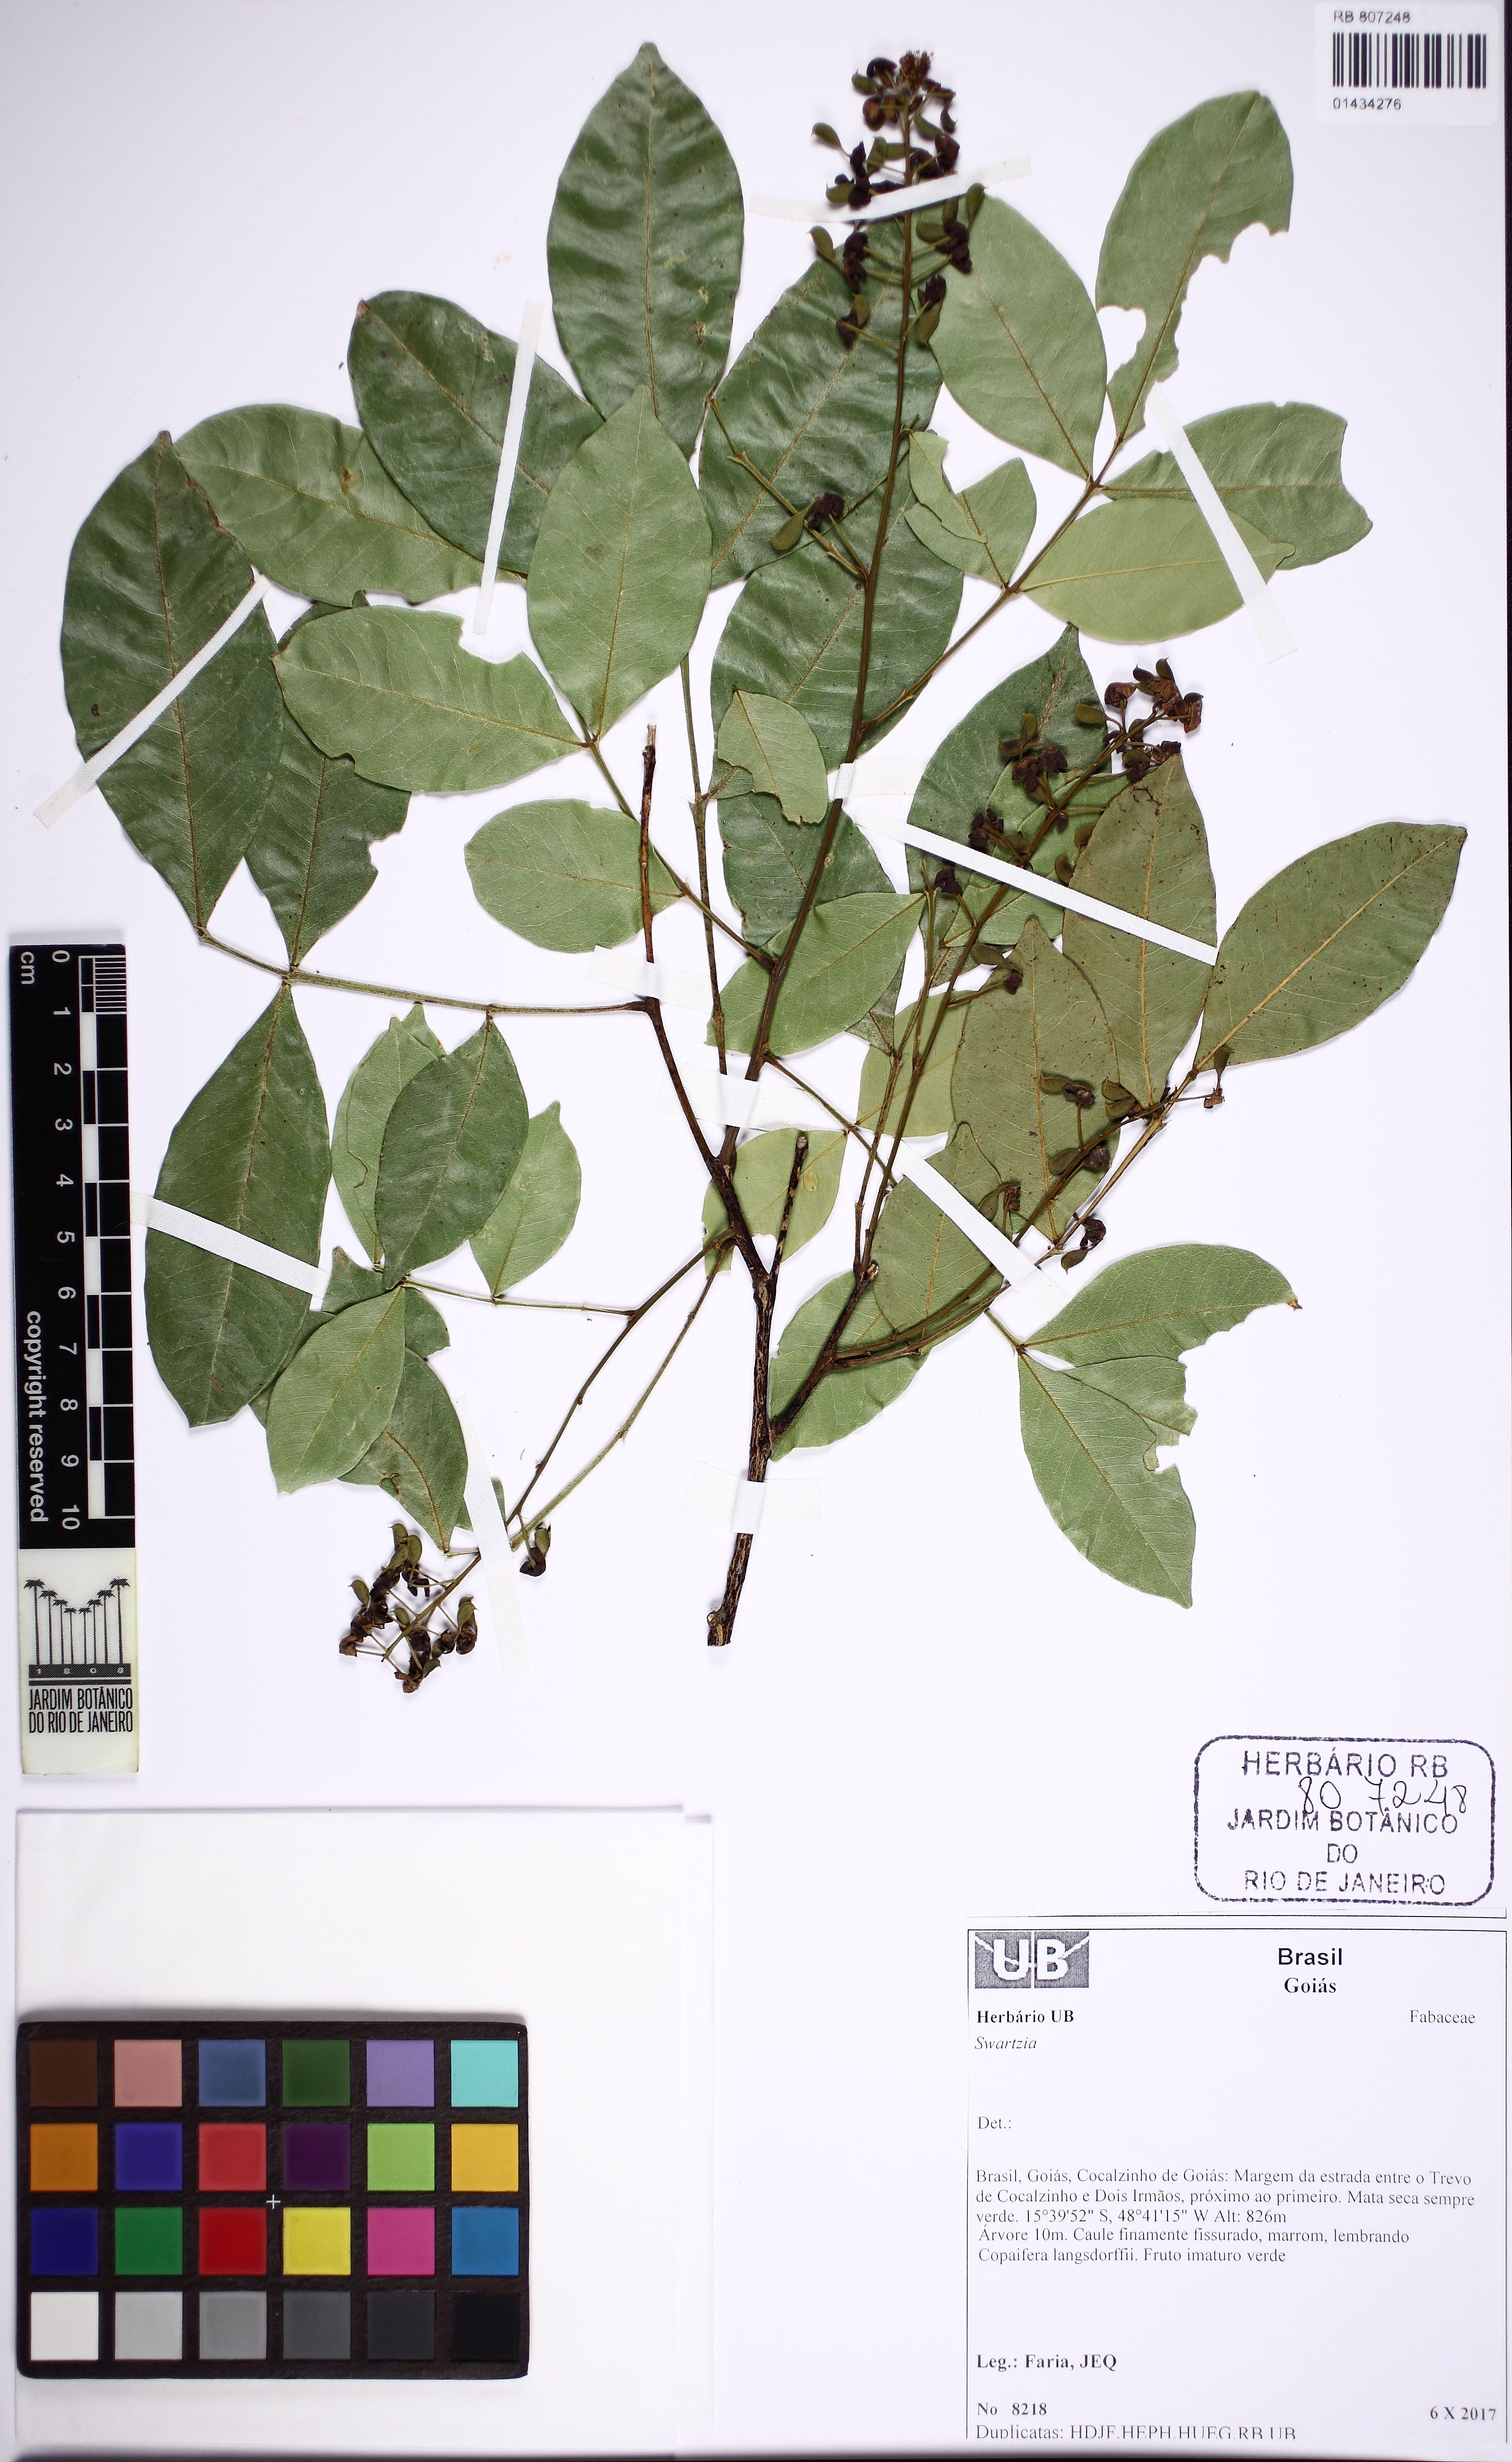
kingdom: Plantae
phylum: Tracheophyta
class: Magnoliopsida
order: Fabales
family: Fabaceae
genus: Swartzia
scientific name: Swartzia
